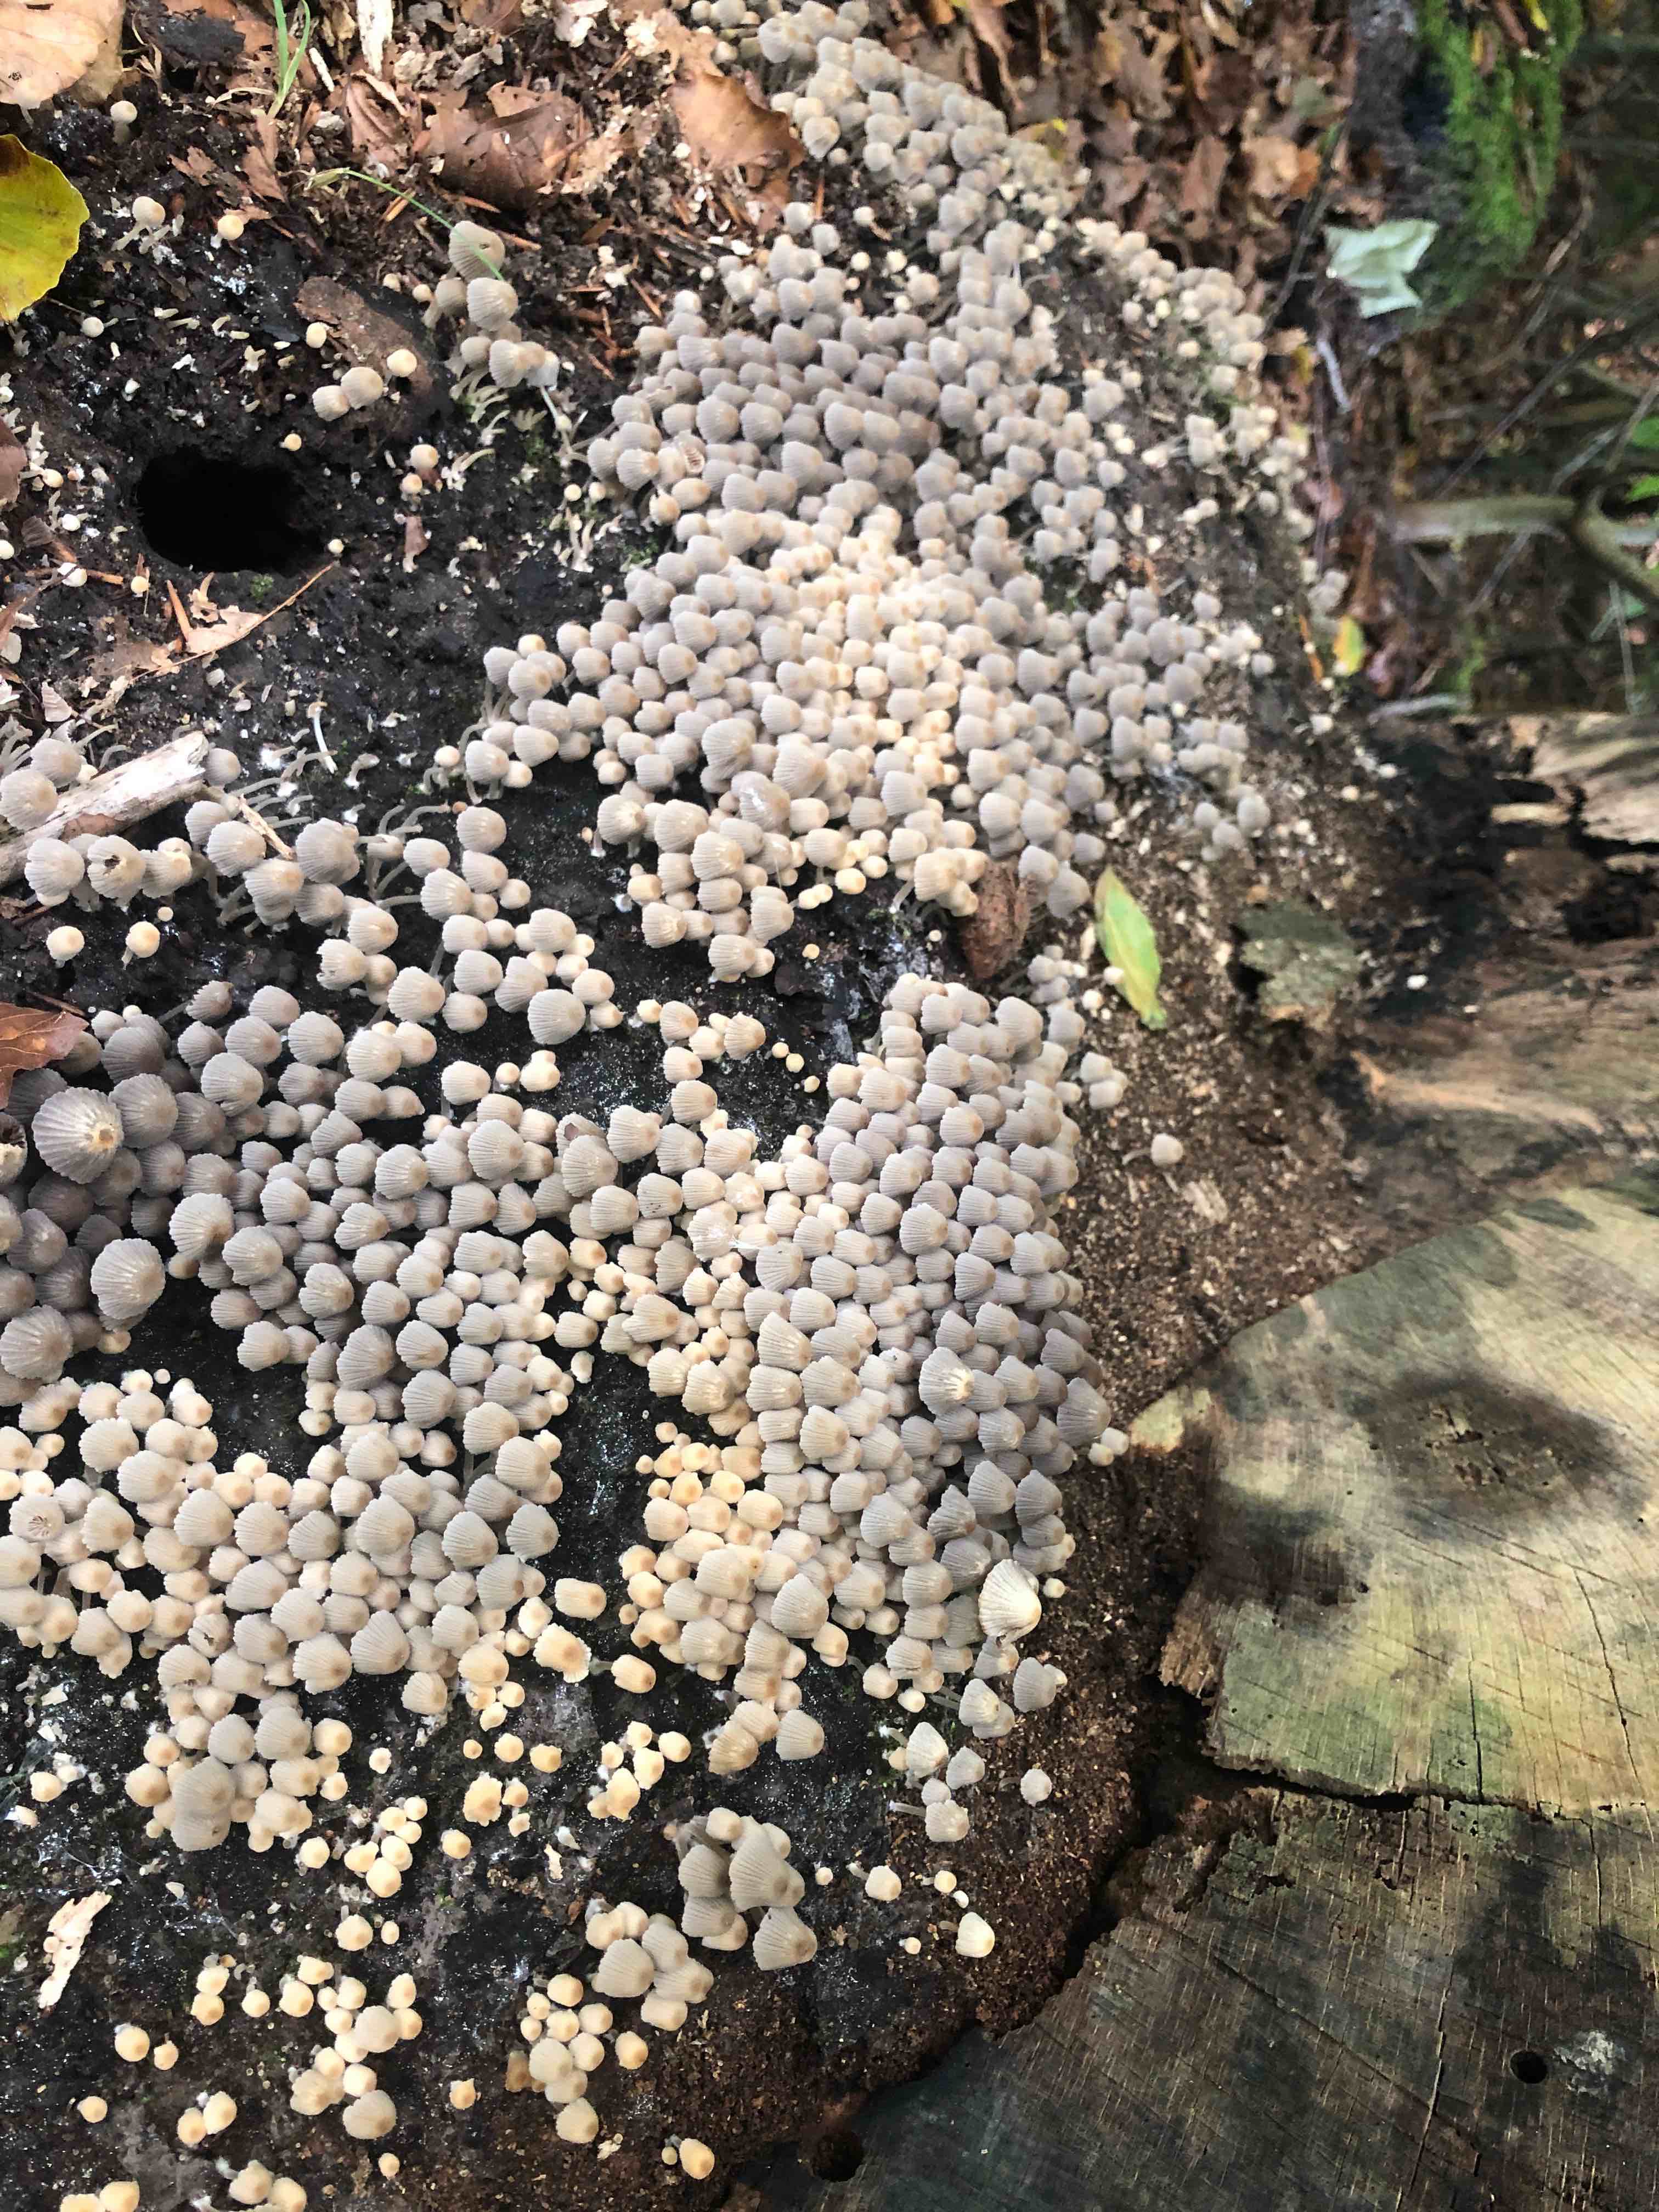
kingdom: Fungi
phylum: Basidiomycota
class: Agaricomycetes
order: Agaricales
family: Psathyrellaceae
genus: Coprinellus
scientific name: Coprinellus disseminatus
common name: bredsået blækhat
